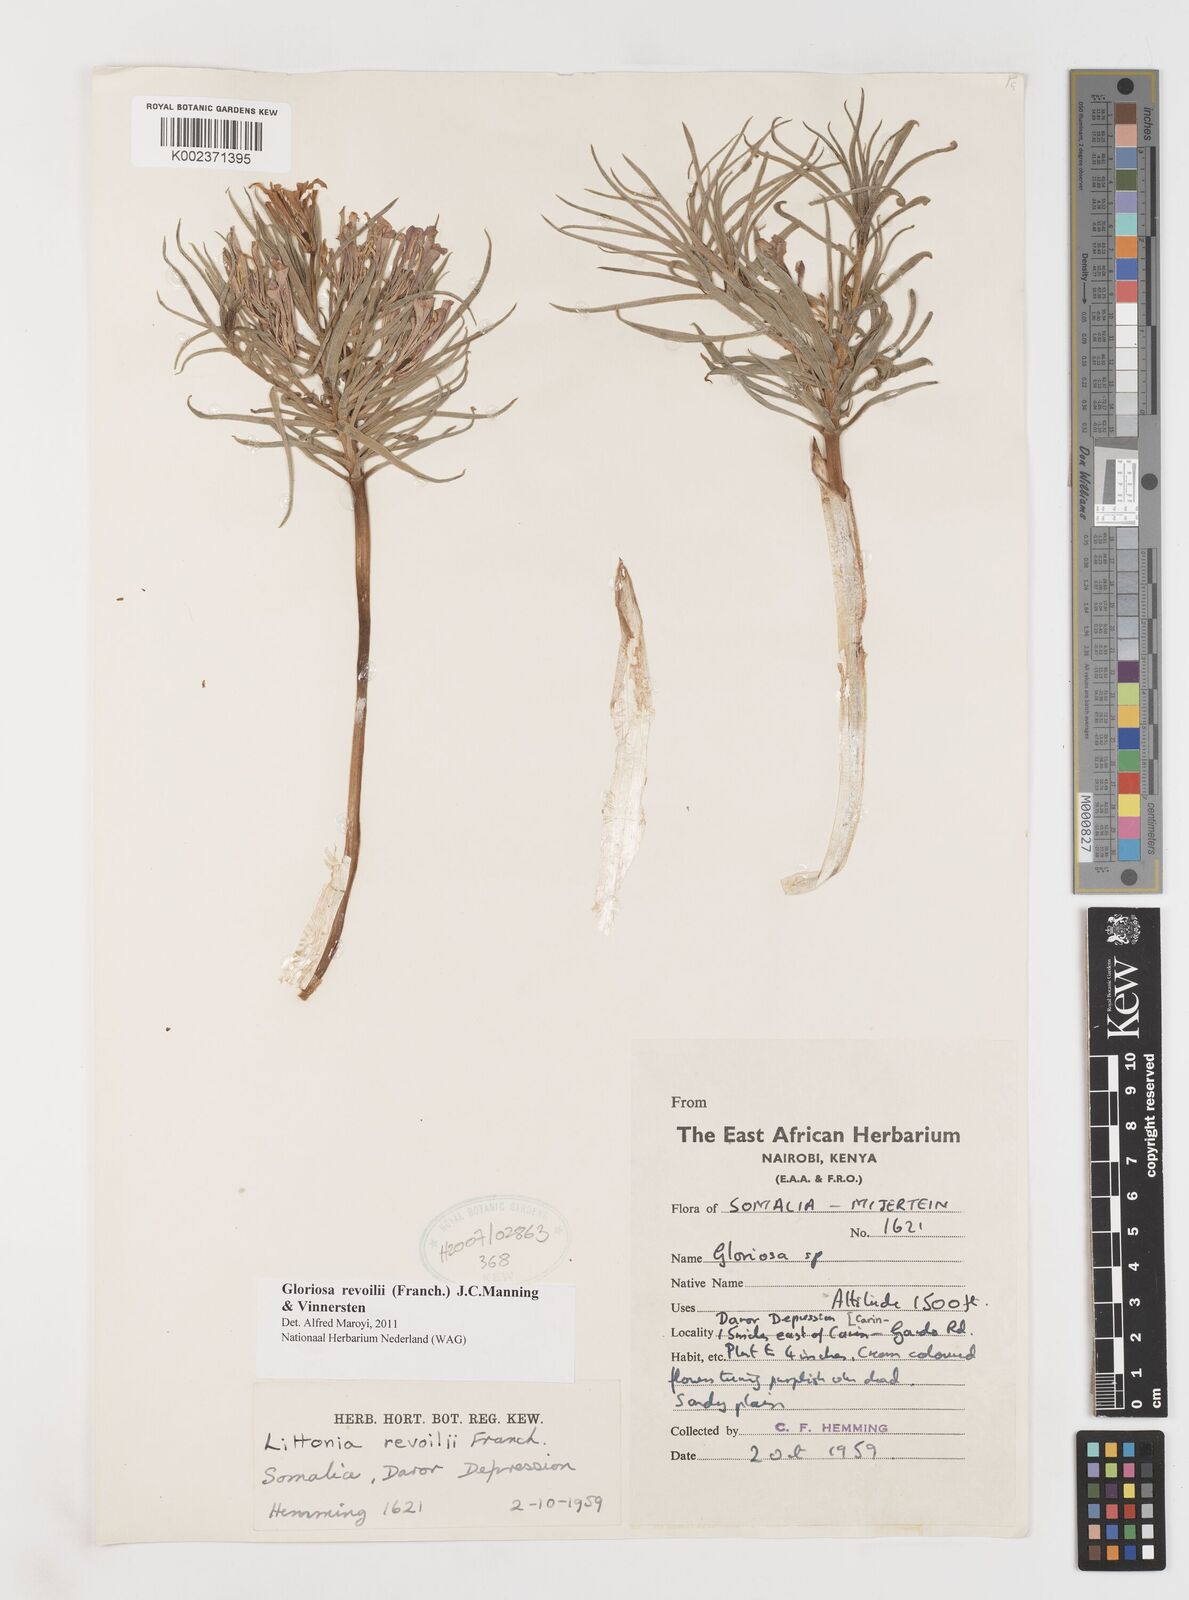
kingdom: Plantae
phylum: Tracheophyta
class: Liliopsida
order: Liliales
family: Colchicaceae
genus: Gloriosa
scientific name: Gloriosa revoilii
